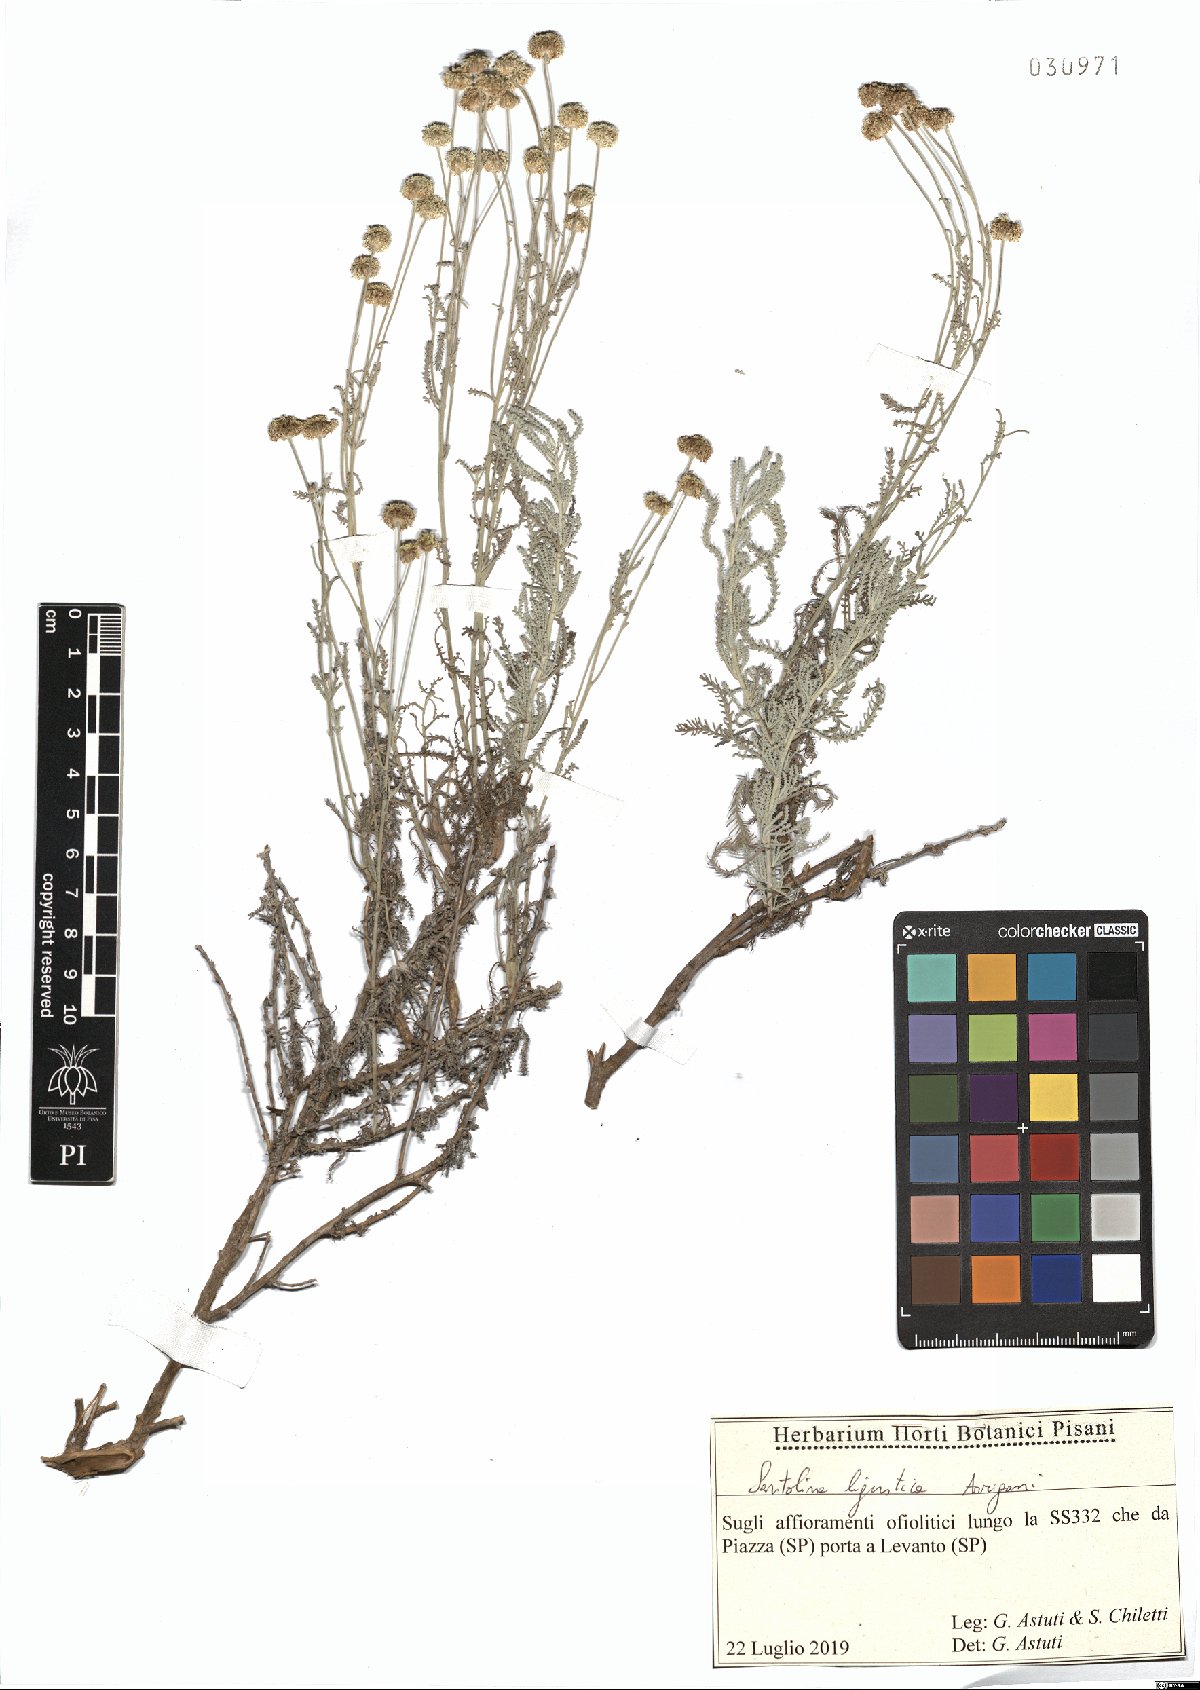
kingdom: Plantae
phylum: Tracheophyta
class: Magnoliopsida
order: Asterales
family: Asteraceae
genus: Santolina
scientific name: Santolina ligustica
